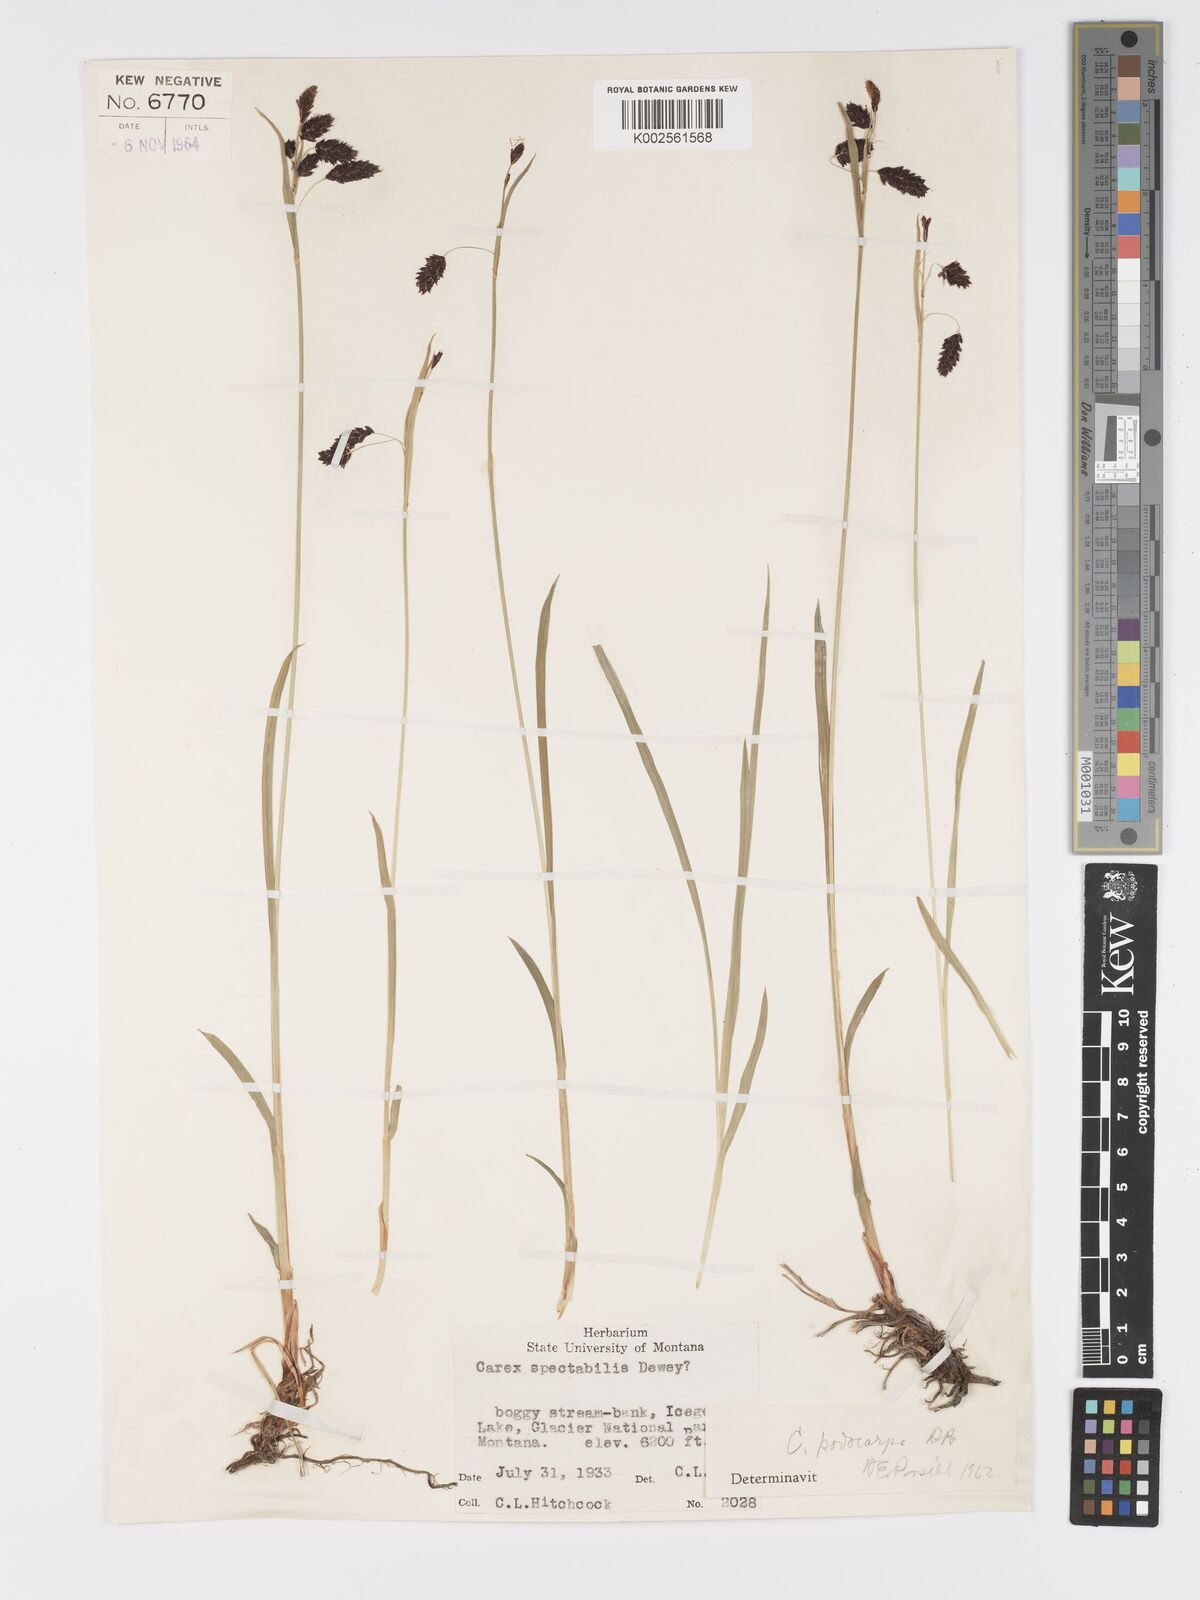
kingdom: Plantae
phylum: Tracheophyta
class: Liliopsida
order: Poales
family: Cyperaceae
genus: Carex
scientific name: Carex podocarpa
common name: Alpine sedge
